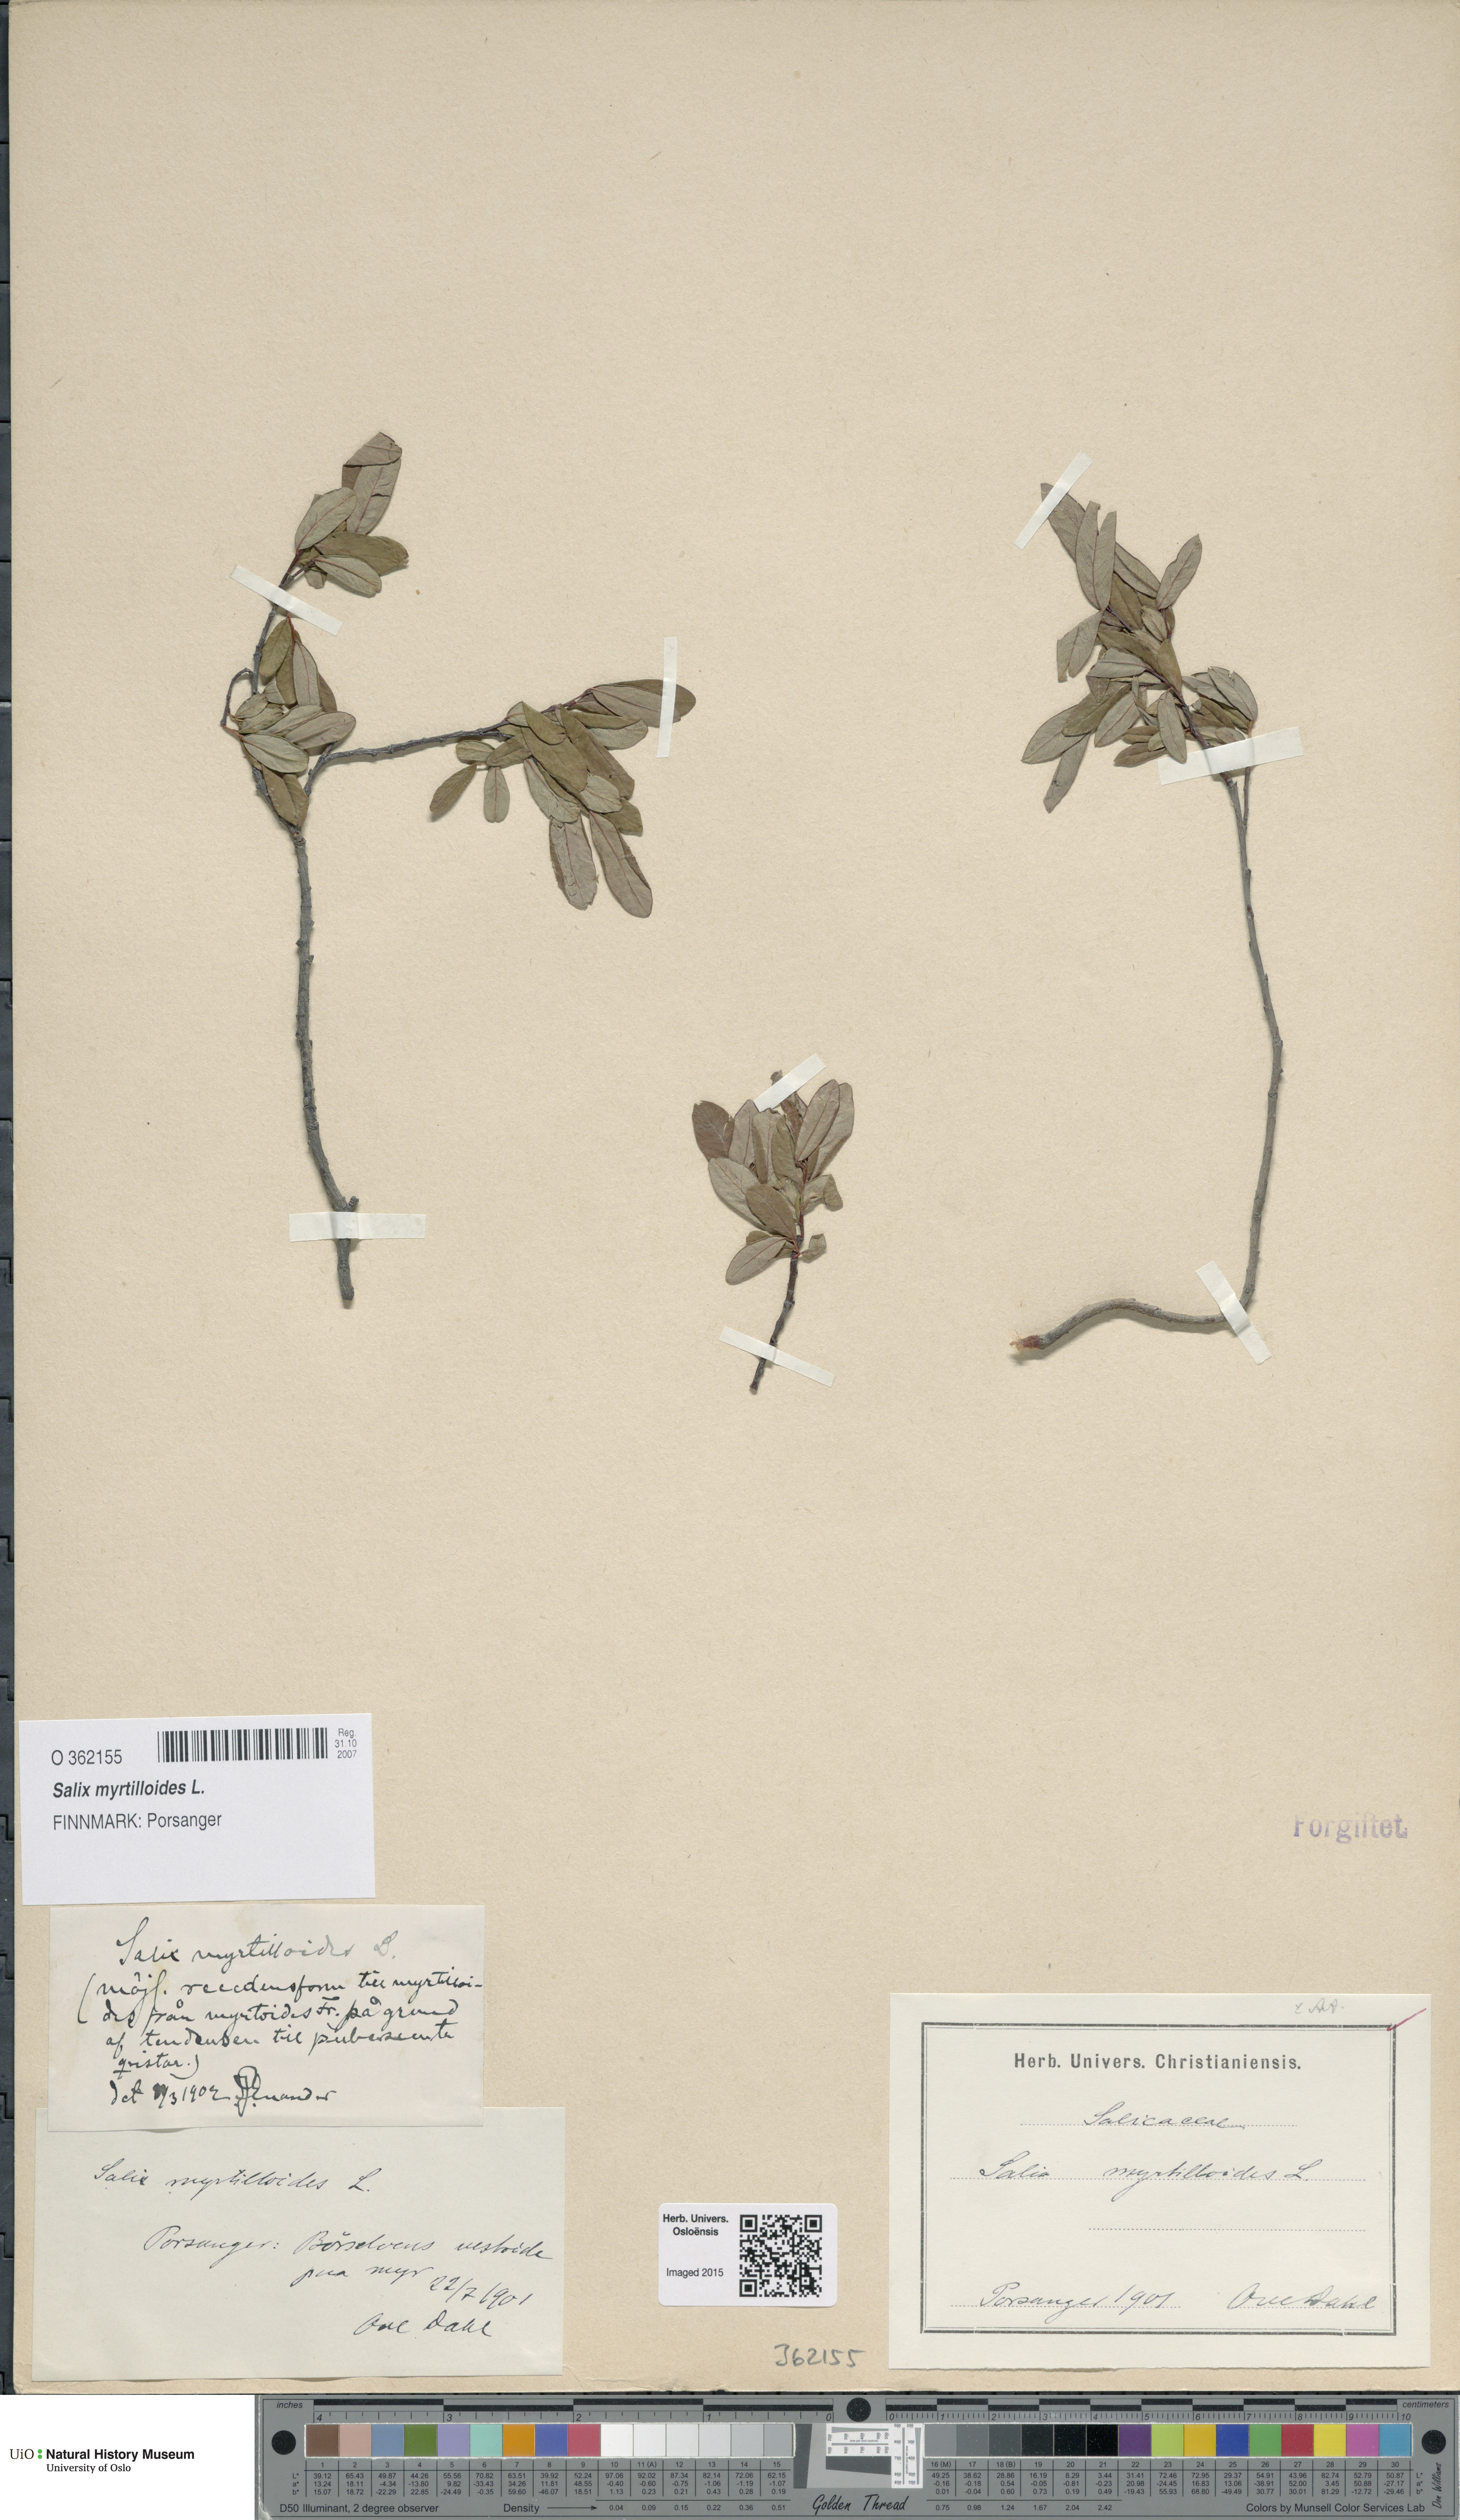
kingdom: Plantae
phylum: Tracheophyta
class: Magnoliopsida
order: Malpighiales
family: Salicaceae
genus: Salix
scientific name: Salix myrtilloides
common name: Myrtle-leaved willow
